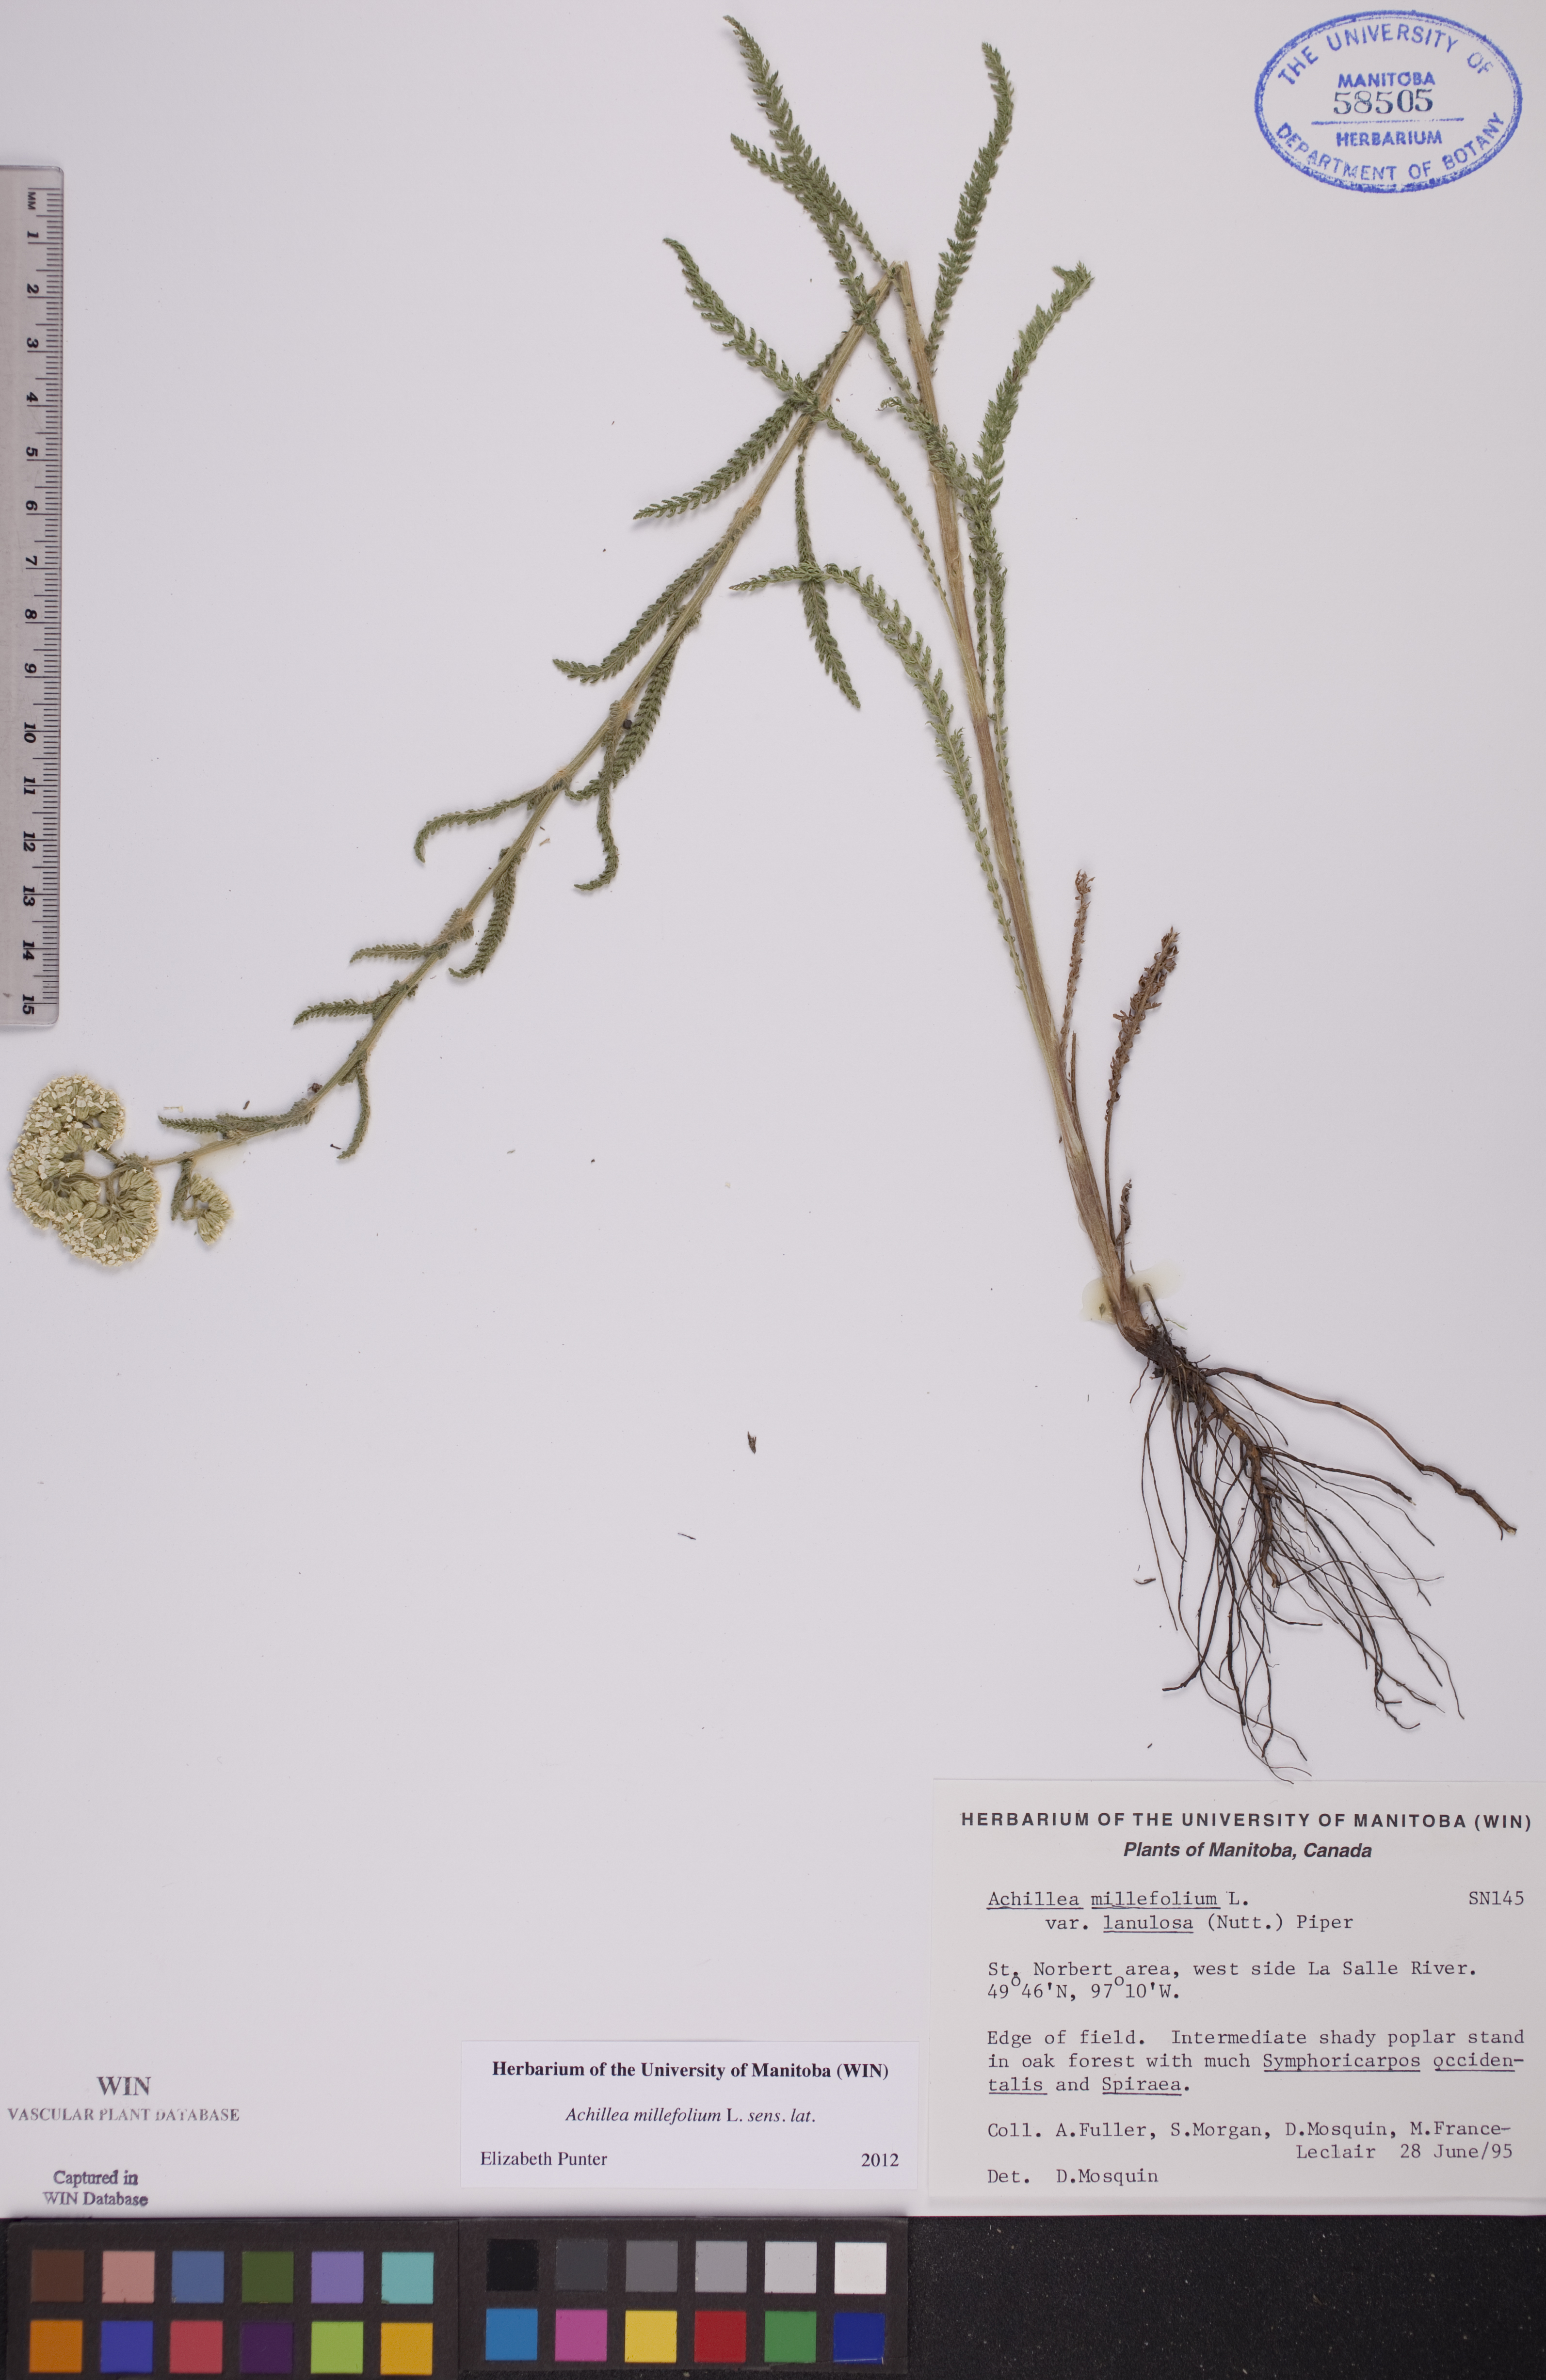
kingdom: Plantae
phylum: Tracheophyta
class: Magnoliopsida
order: Asterales
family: Asteraceae
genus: Achillea
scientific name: Achillea millefolium
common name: Yarrow
